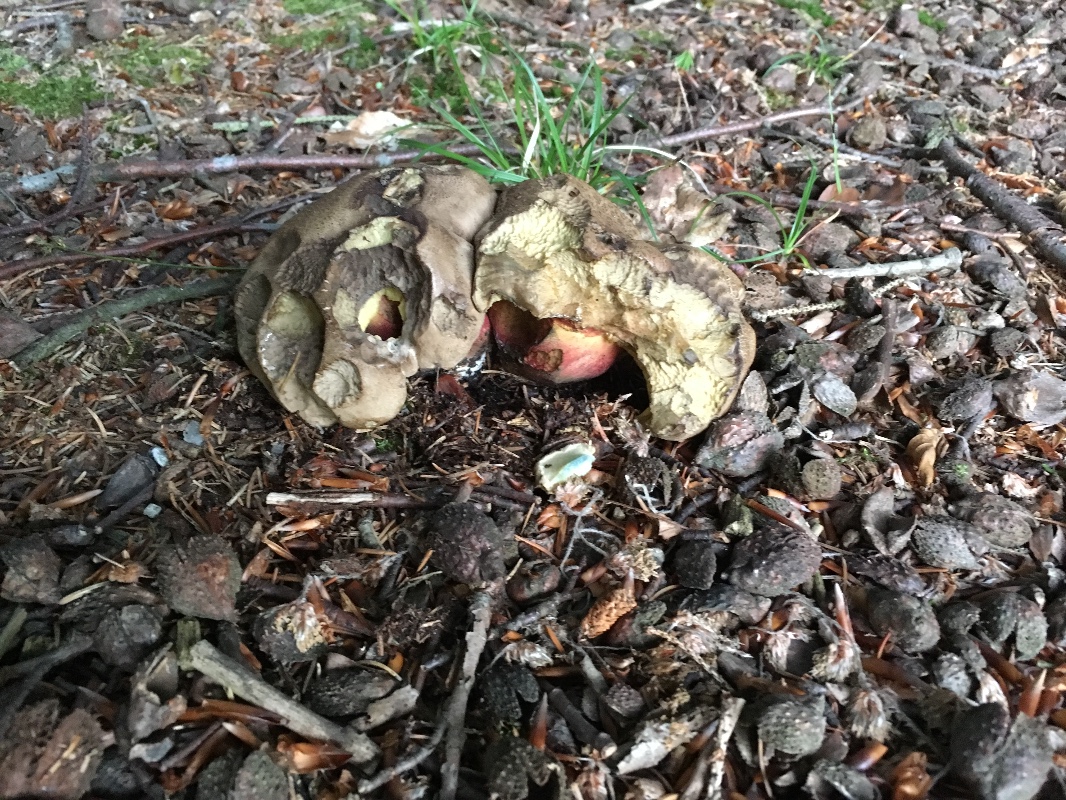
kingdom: Fungi
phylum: Basidiomycota
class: Agaricomycetes
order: Boletales
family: Boletaceae
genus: Caloboletus
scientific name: Caloboletus calopus
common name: skønfodet rørhat
